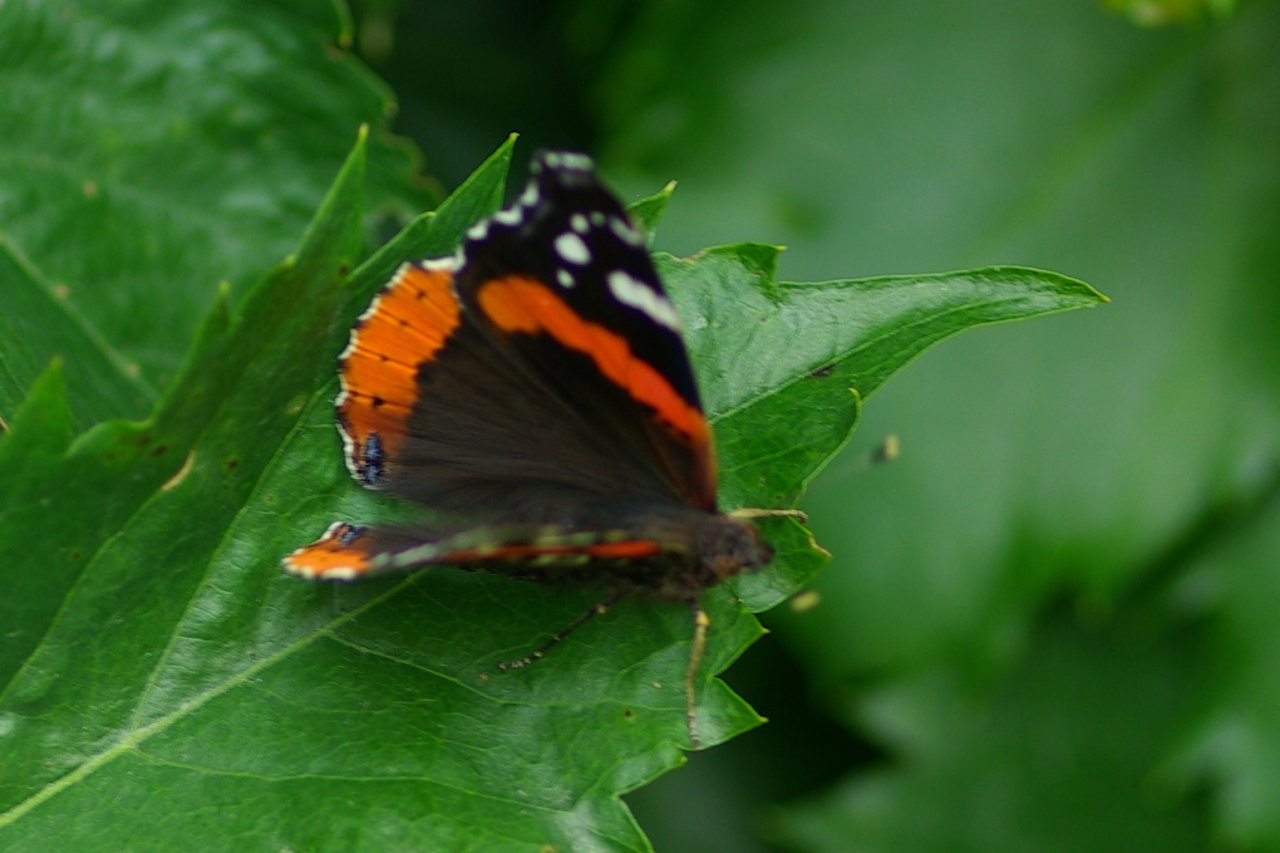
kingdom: Animalia
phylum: Arthropoda
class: Insecta
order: Lepidoptera
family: Nymphalidae
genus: Vanessa
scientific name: Vanessa atalanta
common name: Red Admiral
